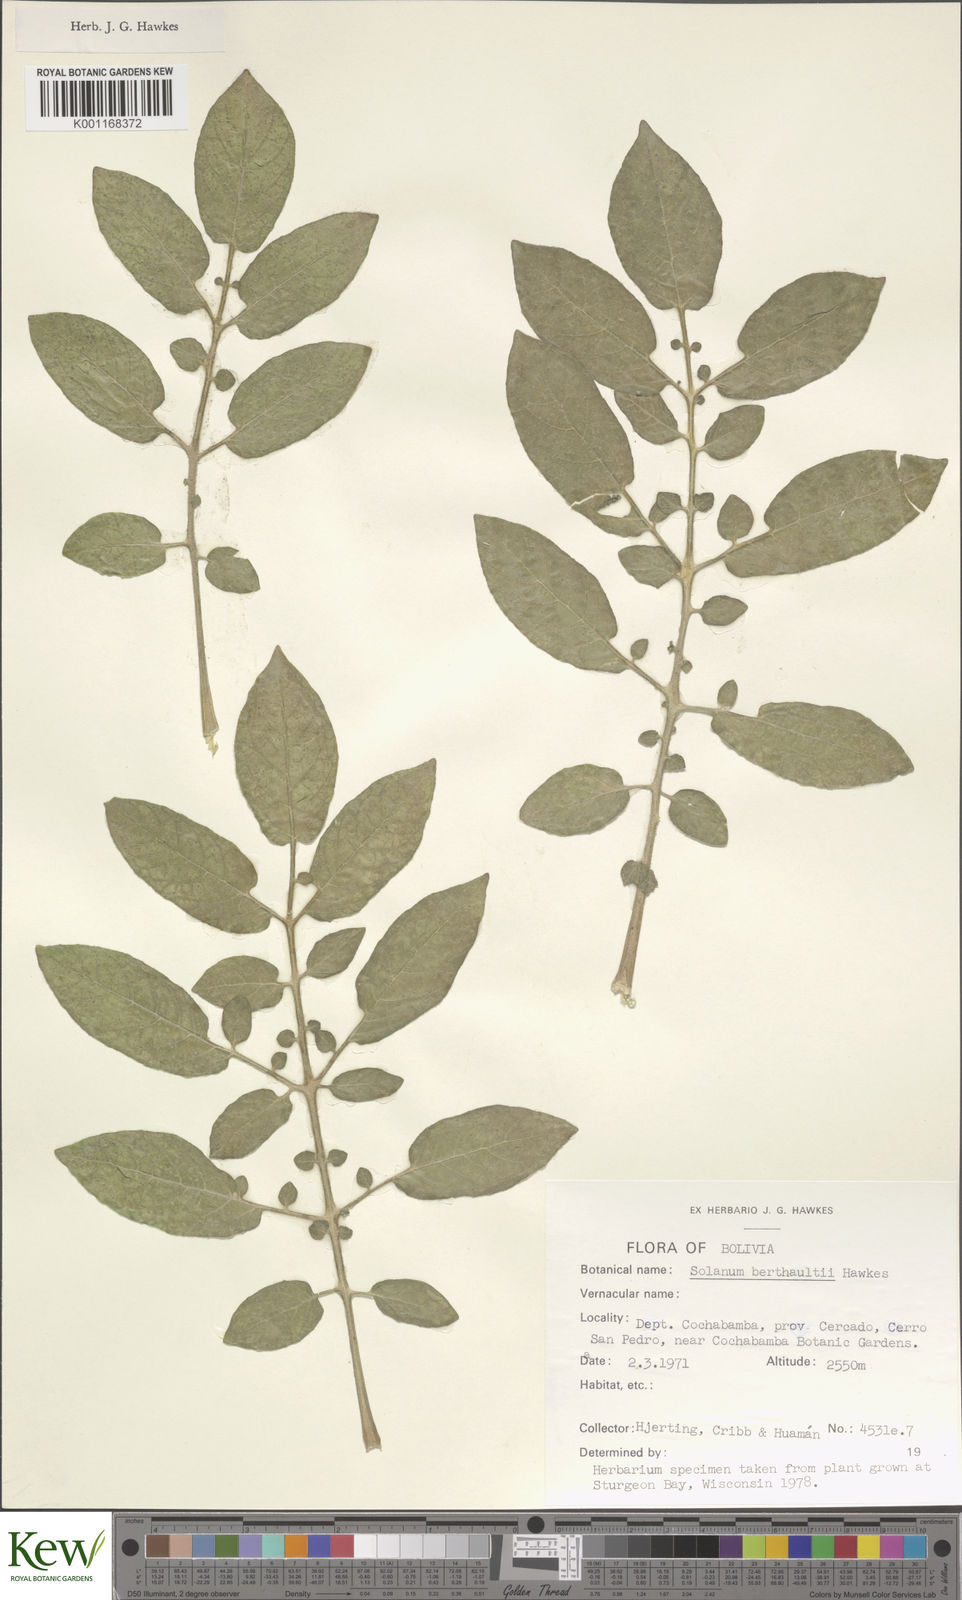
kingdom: Plantae
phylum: Tracheophyta
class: Magnoliopsida
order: Solanales
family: Solanaceae
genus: Solanum
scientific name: Solanum berthaultii
